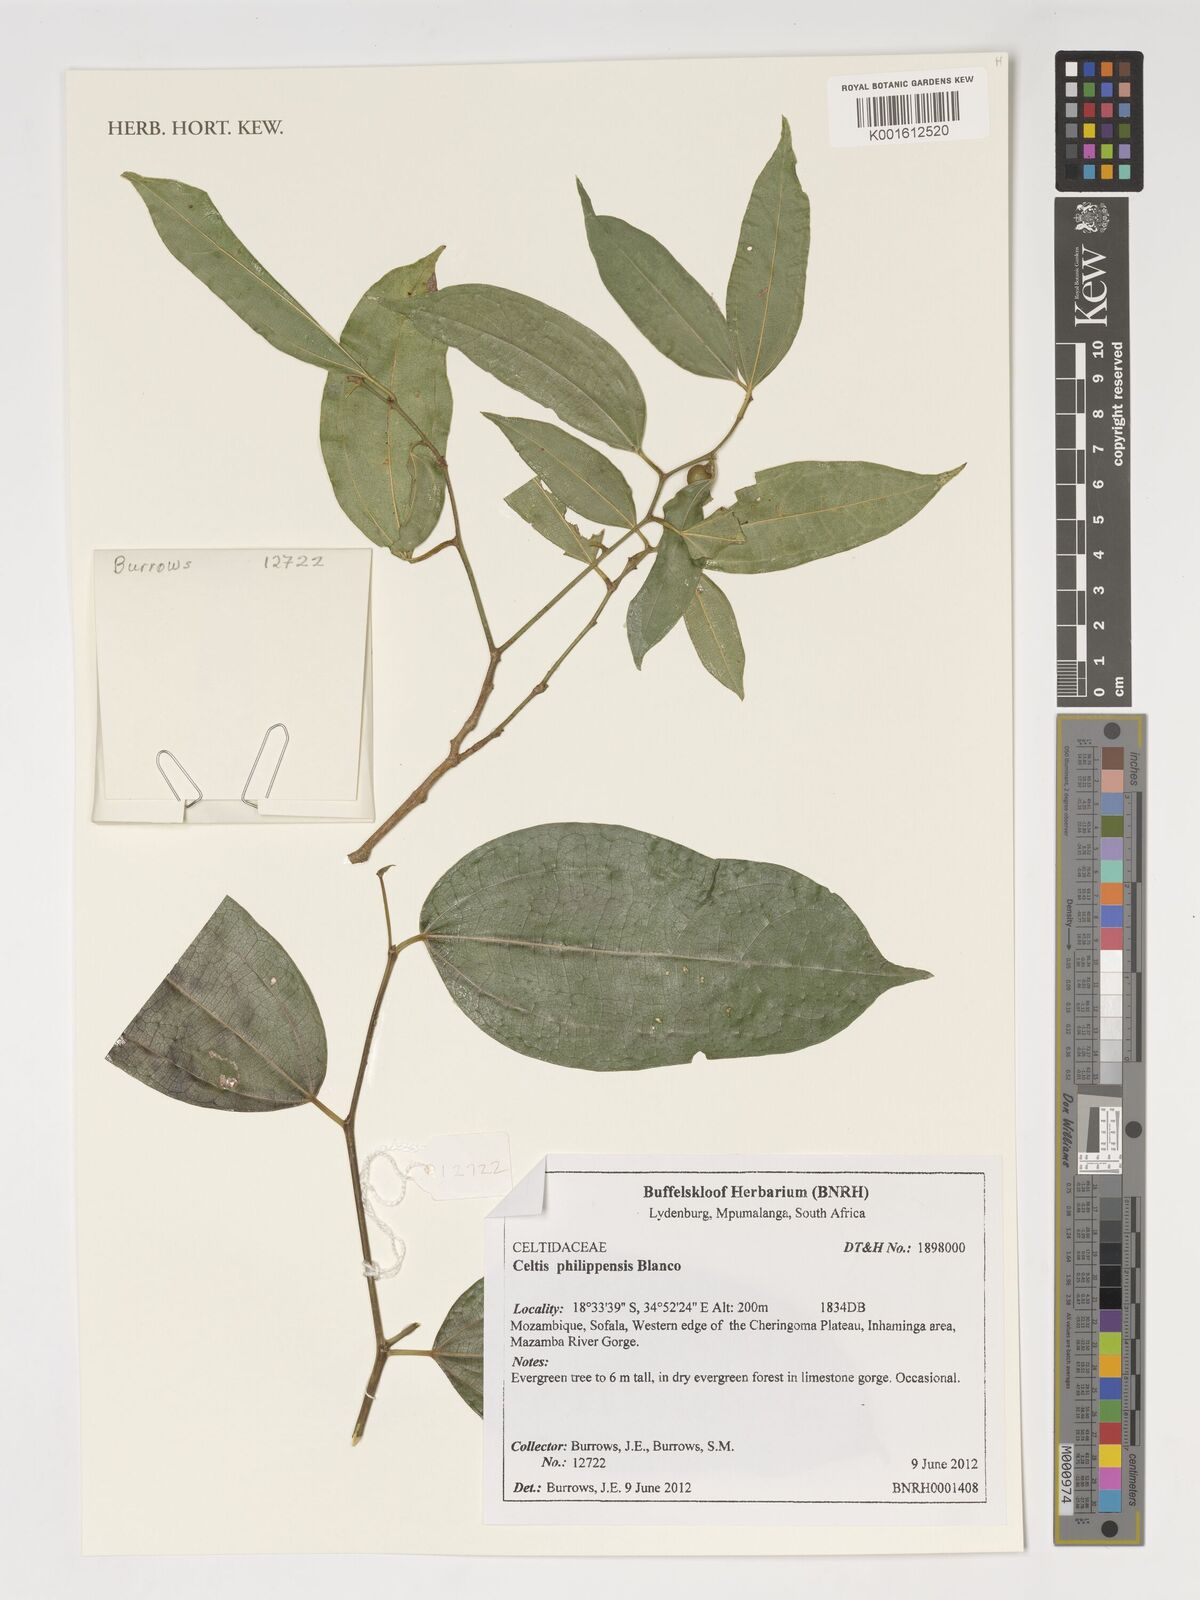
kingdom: Plantae
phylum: Tracheophyta
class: Magnoliopsida
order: Rosales
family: Cannabaceae
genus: Celtis
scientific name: Celtis philippensis
